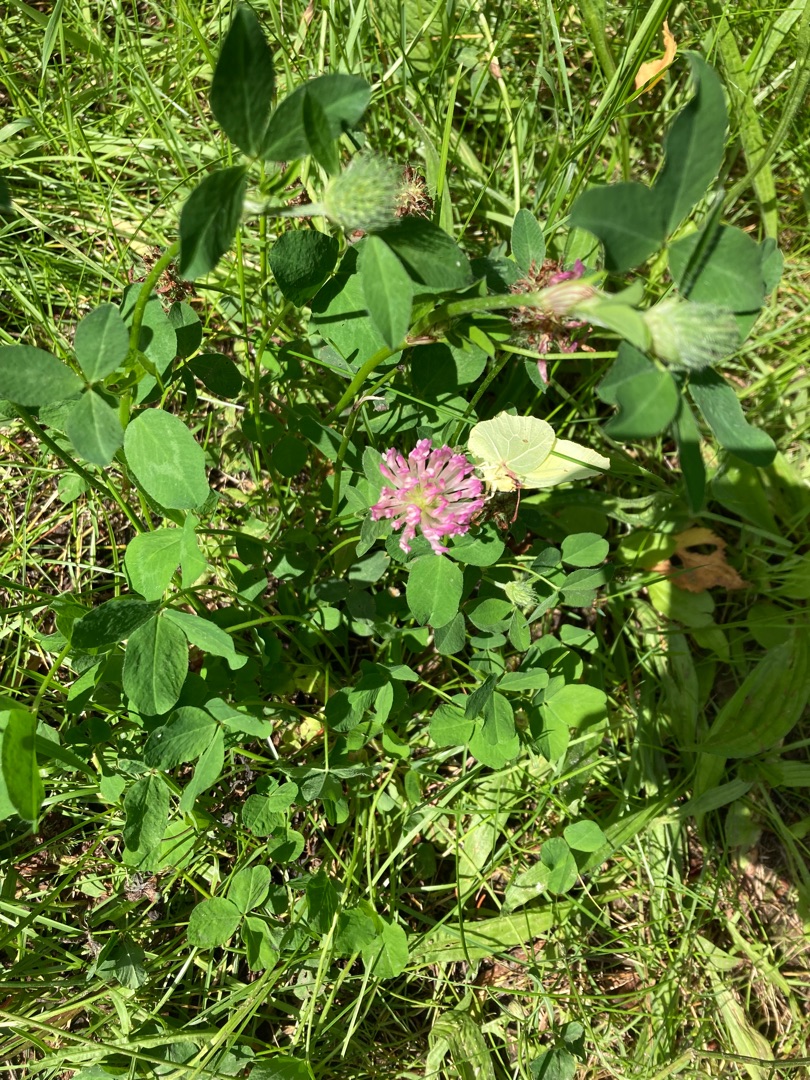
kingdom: Animalia
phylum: Arthropoda
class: Insecta
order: Lepidoptera
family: Pieridae
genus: Gonepteryx
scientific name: Gonepteryx rhamni
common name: Citronsommerfugl
